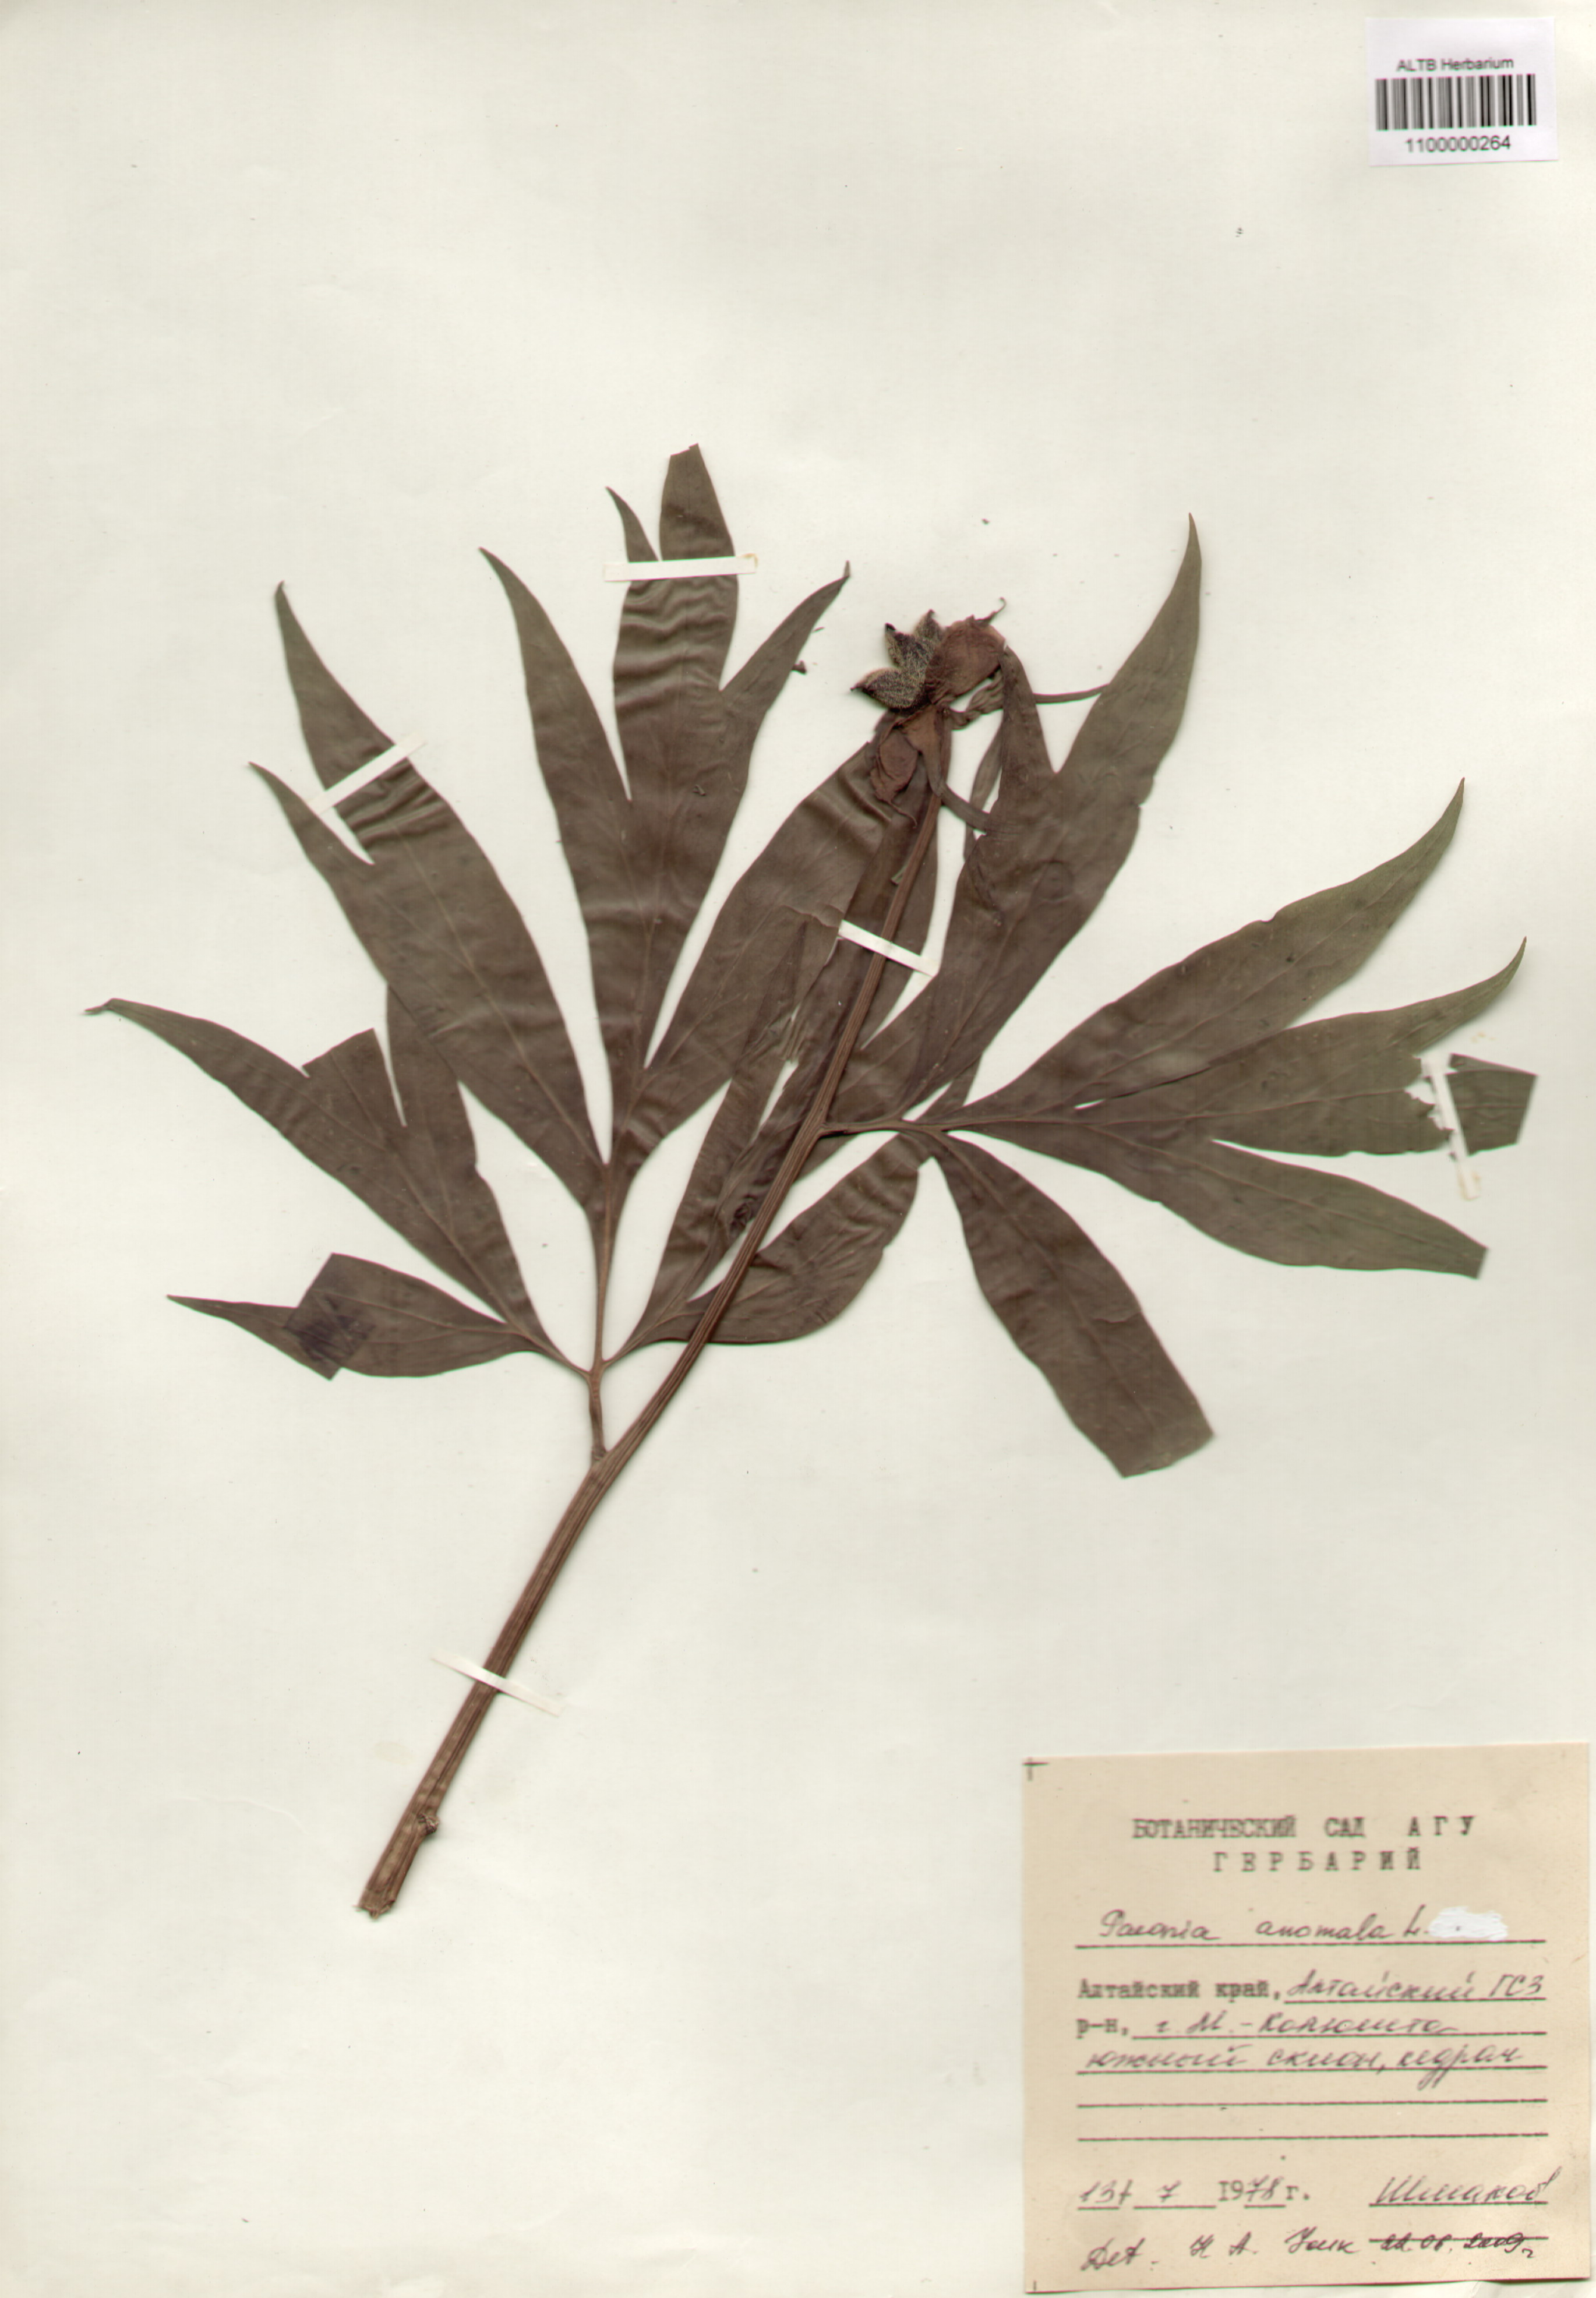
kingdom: Plantae
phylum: Tracheophyta
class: Magnoliopsida
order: Saxifragales
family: Paeoniaceae
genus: Paeonia
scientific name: Paeonia anomala
